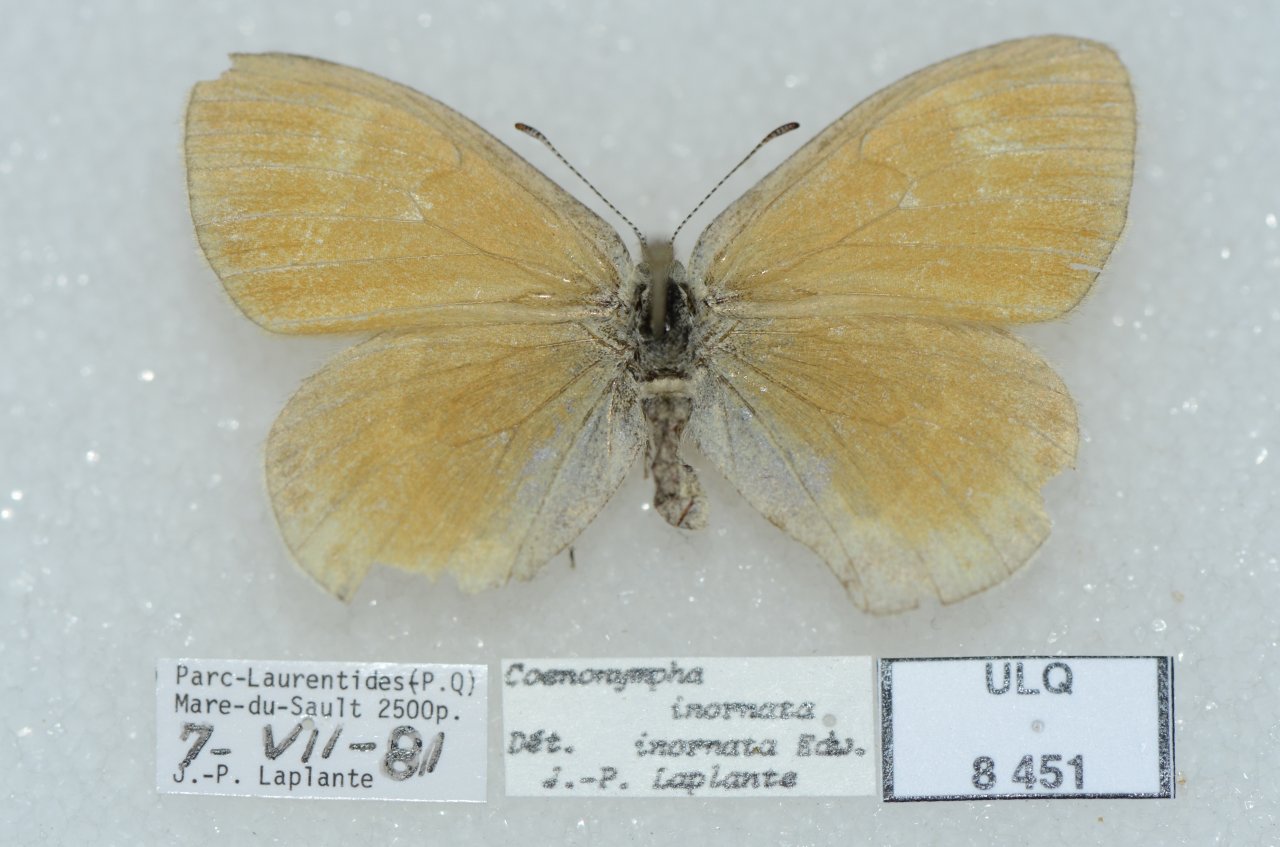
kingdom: Animalia
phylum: Arthropoda
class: Insecta
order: Lepidoptera
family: Nymphalidae
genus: Coenonympha
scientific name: Coenonympha tullia
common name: Large Heath
